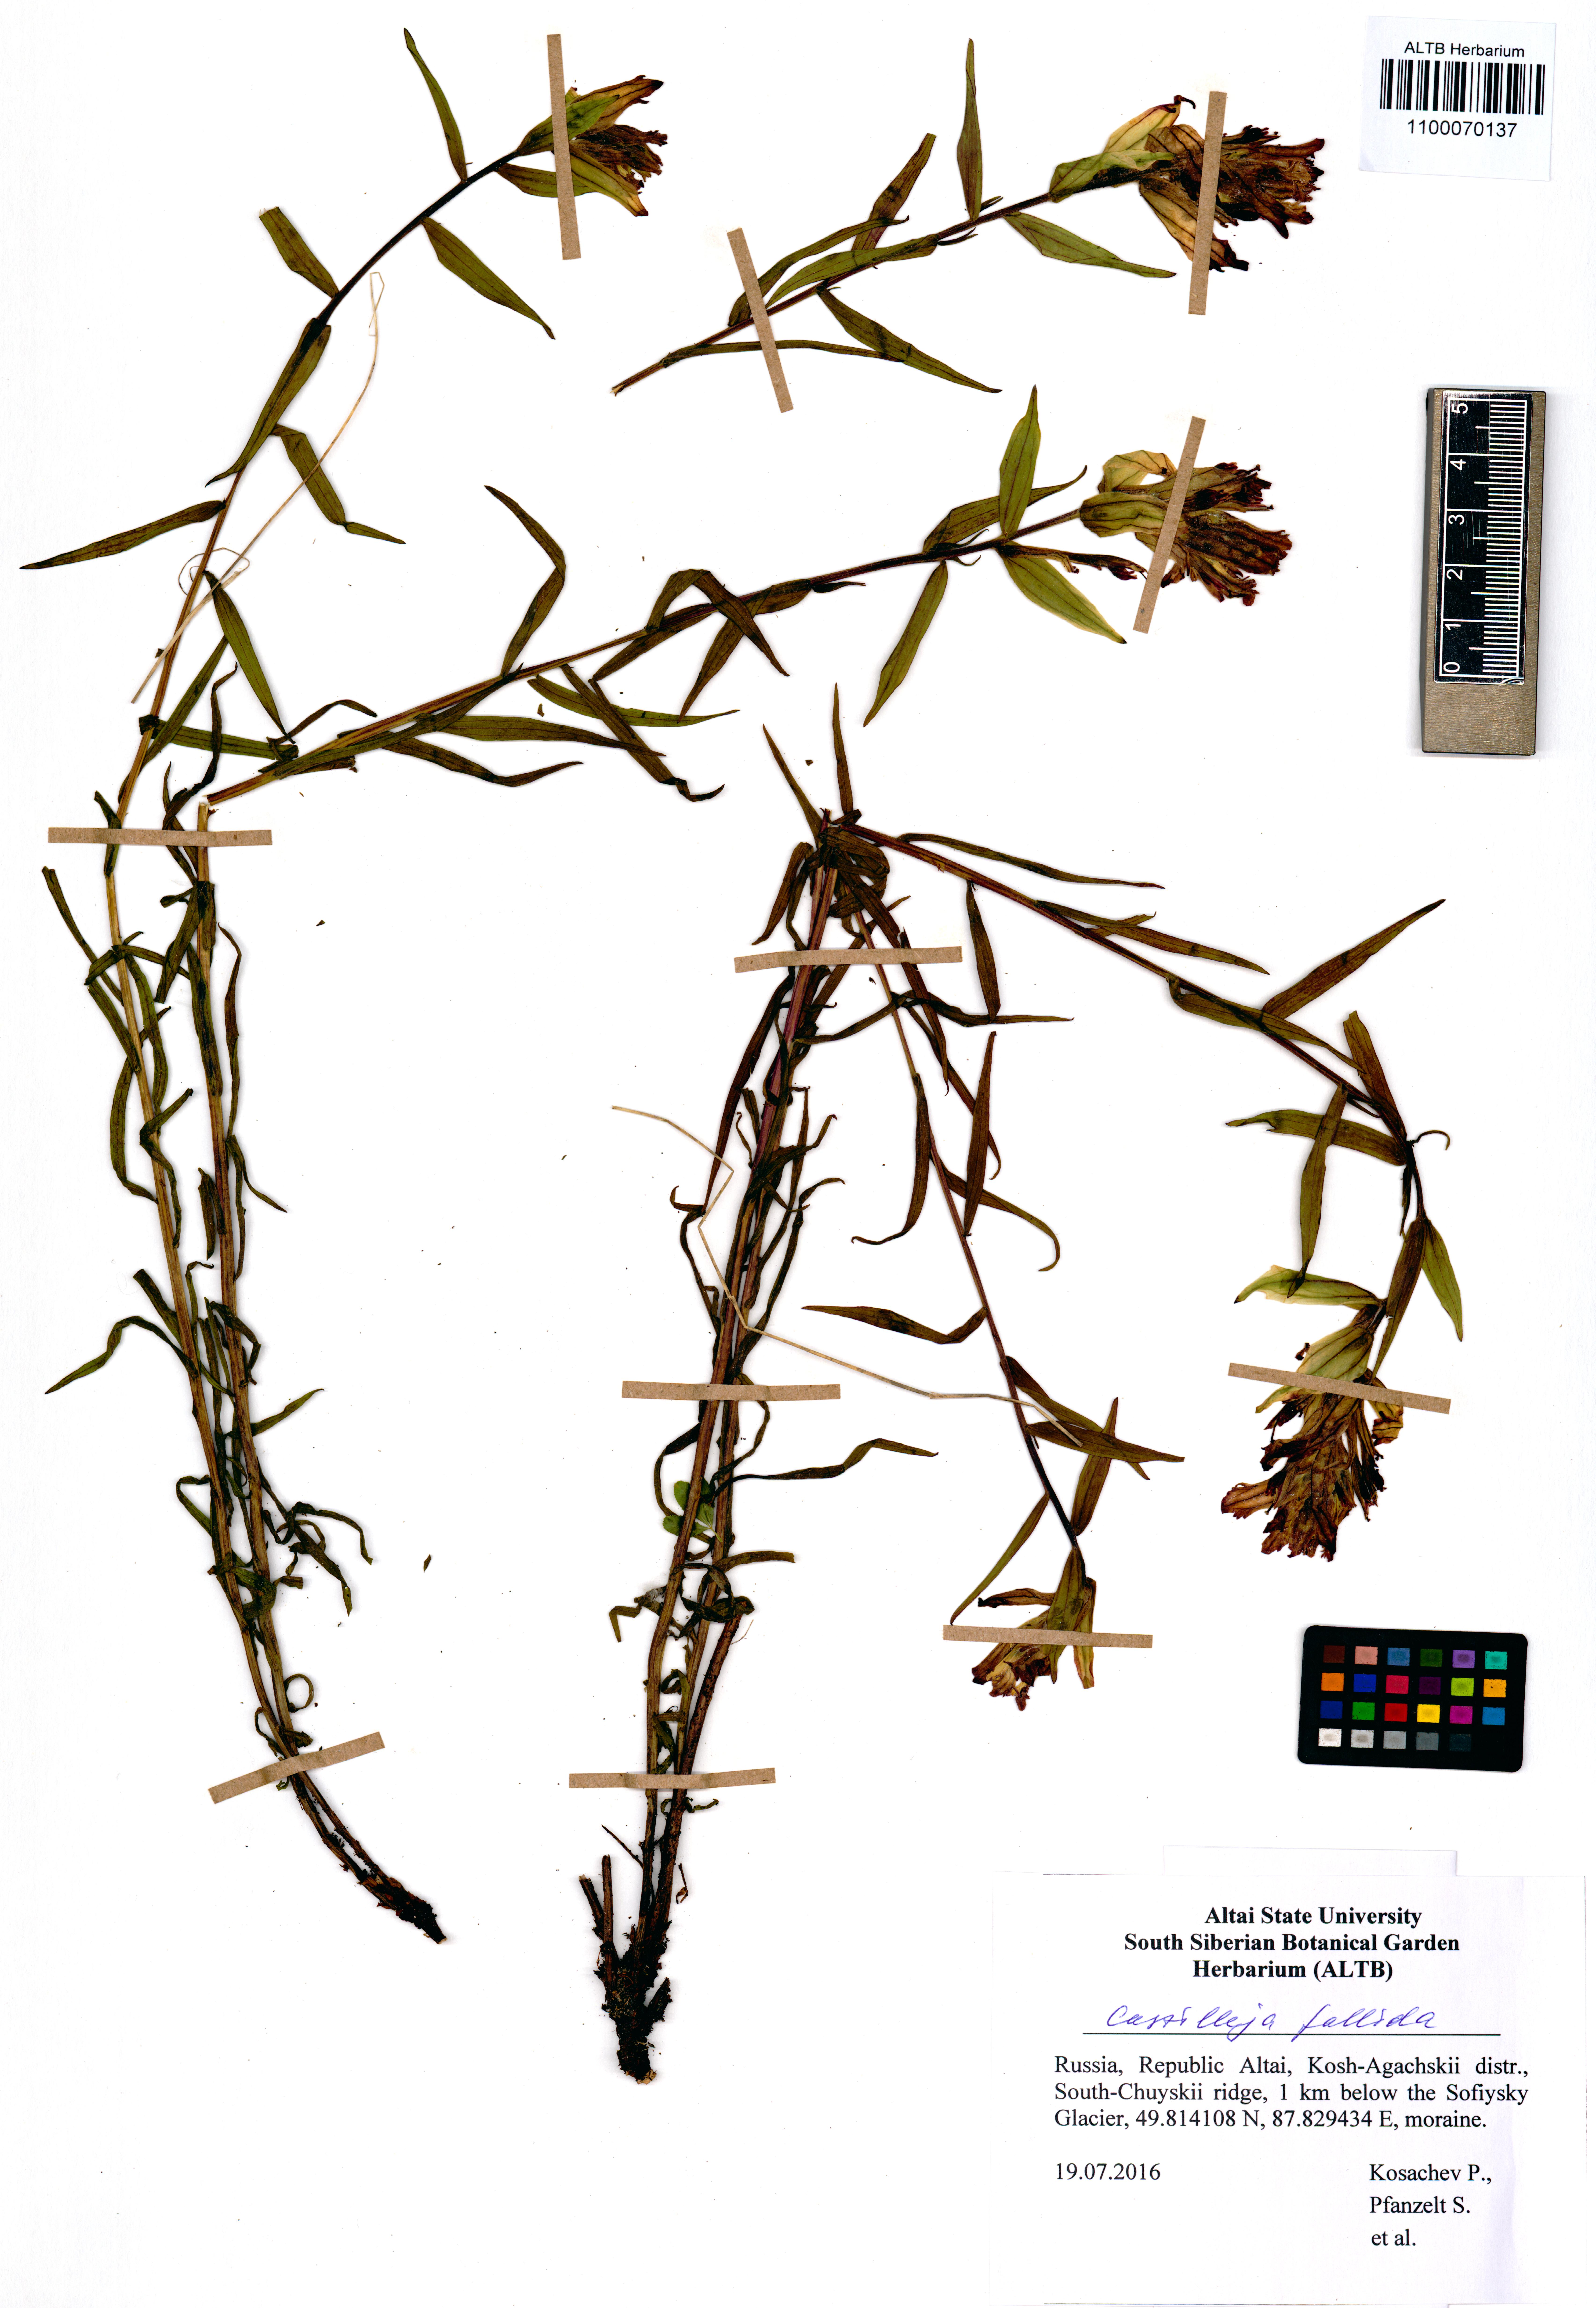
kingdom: Plantae
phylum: Tracheophyta
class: Magnoliopsida
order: Lamiales
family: Orobanchaceae
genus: Castilleja
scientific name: Castilleja pallida
